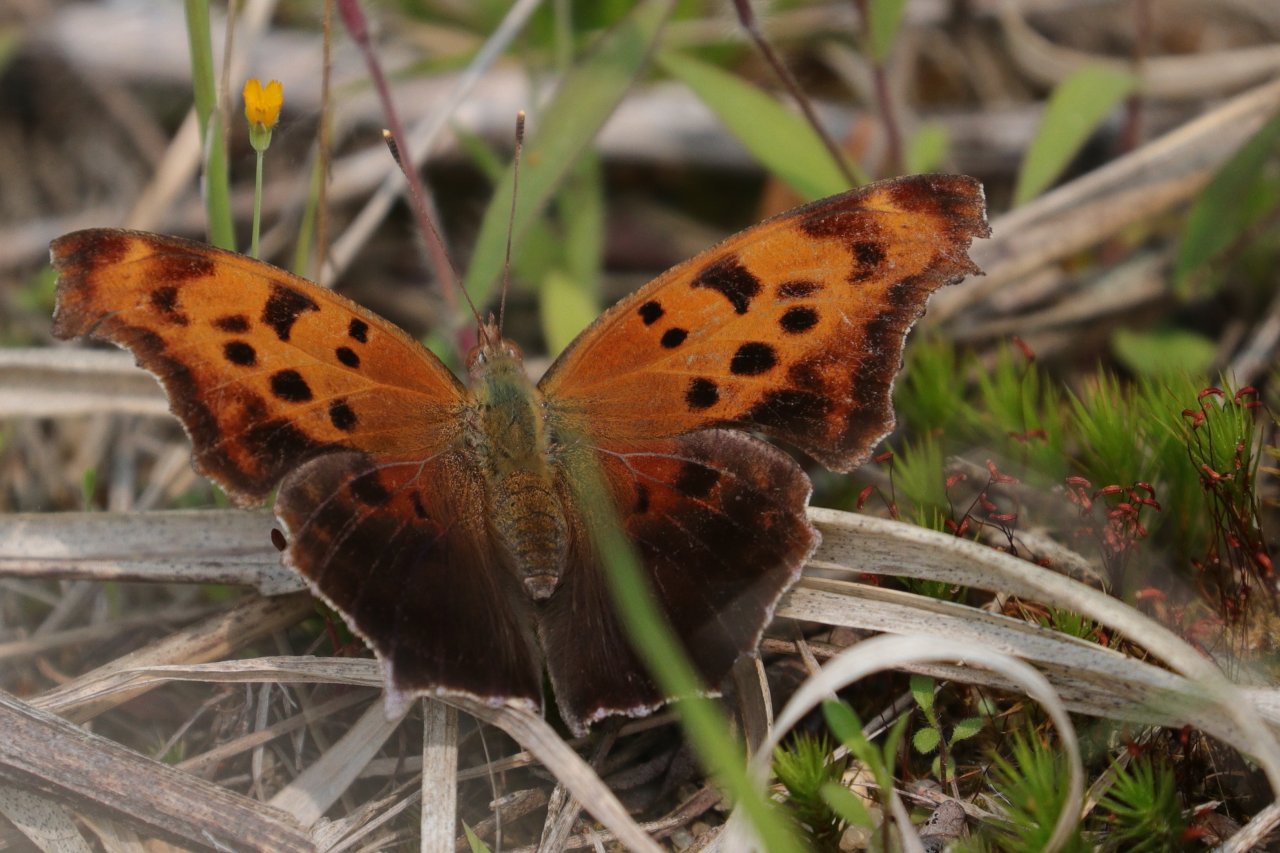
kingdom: Animalia
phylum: Arthropoda
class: Insecta
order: Lepidoptera
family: Nymphalidae
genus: Polygonia
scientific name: Polygonia interrogationis
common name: Question Mark
